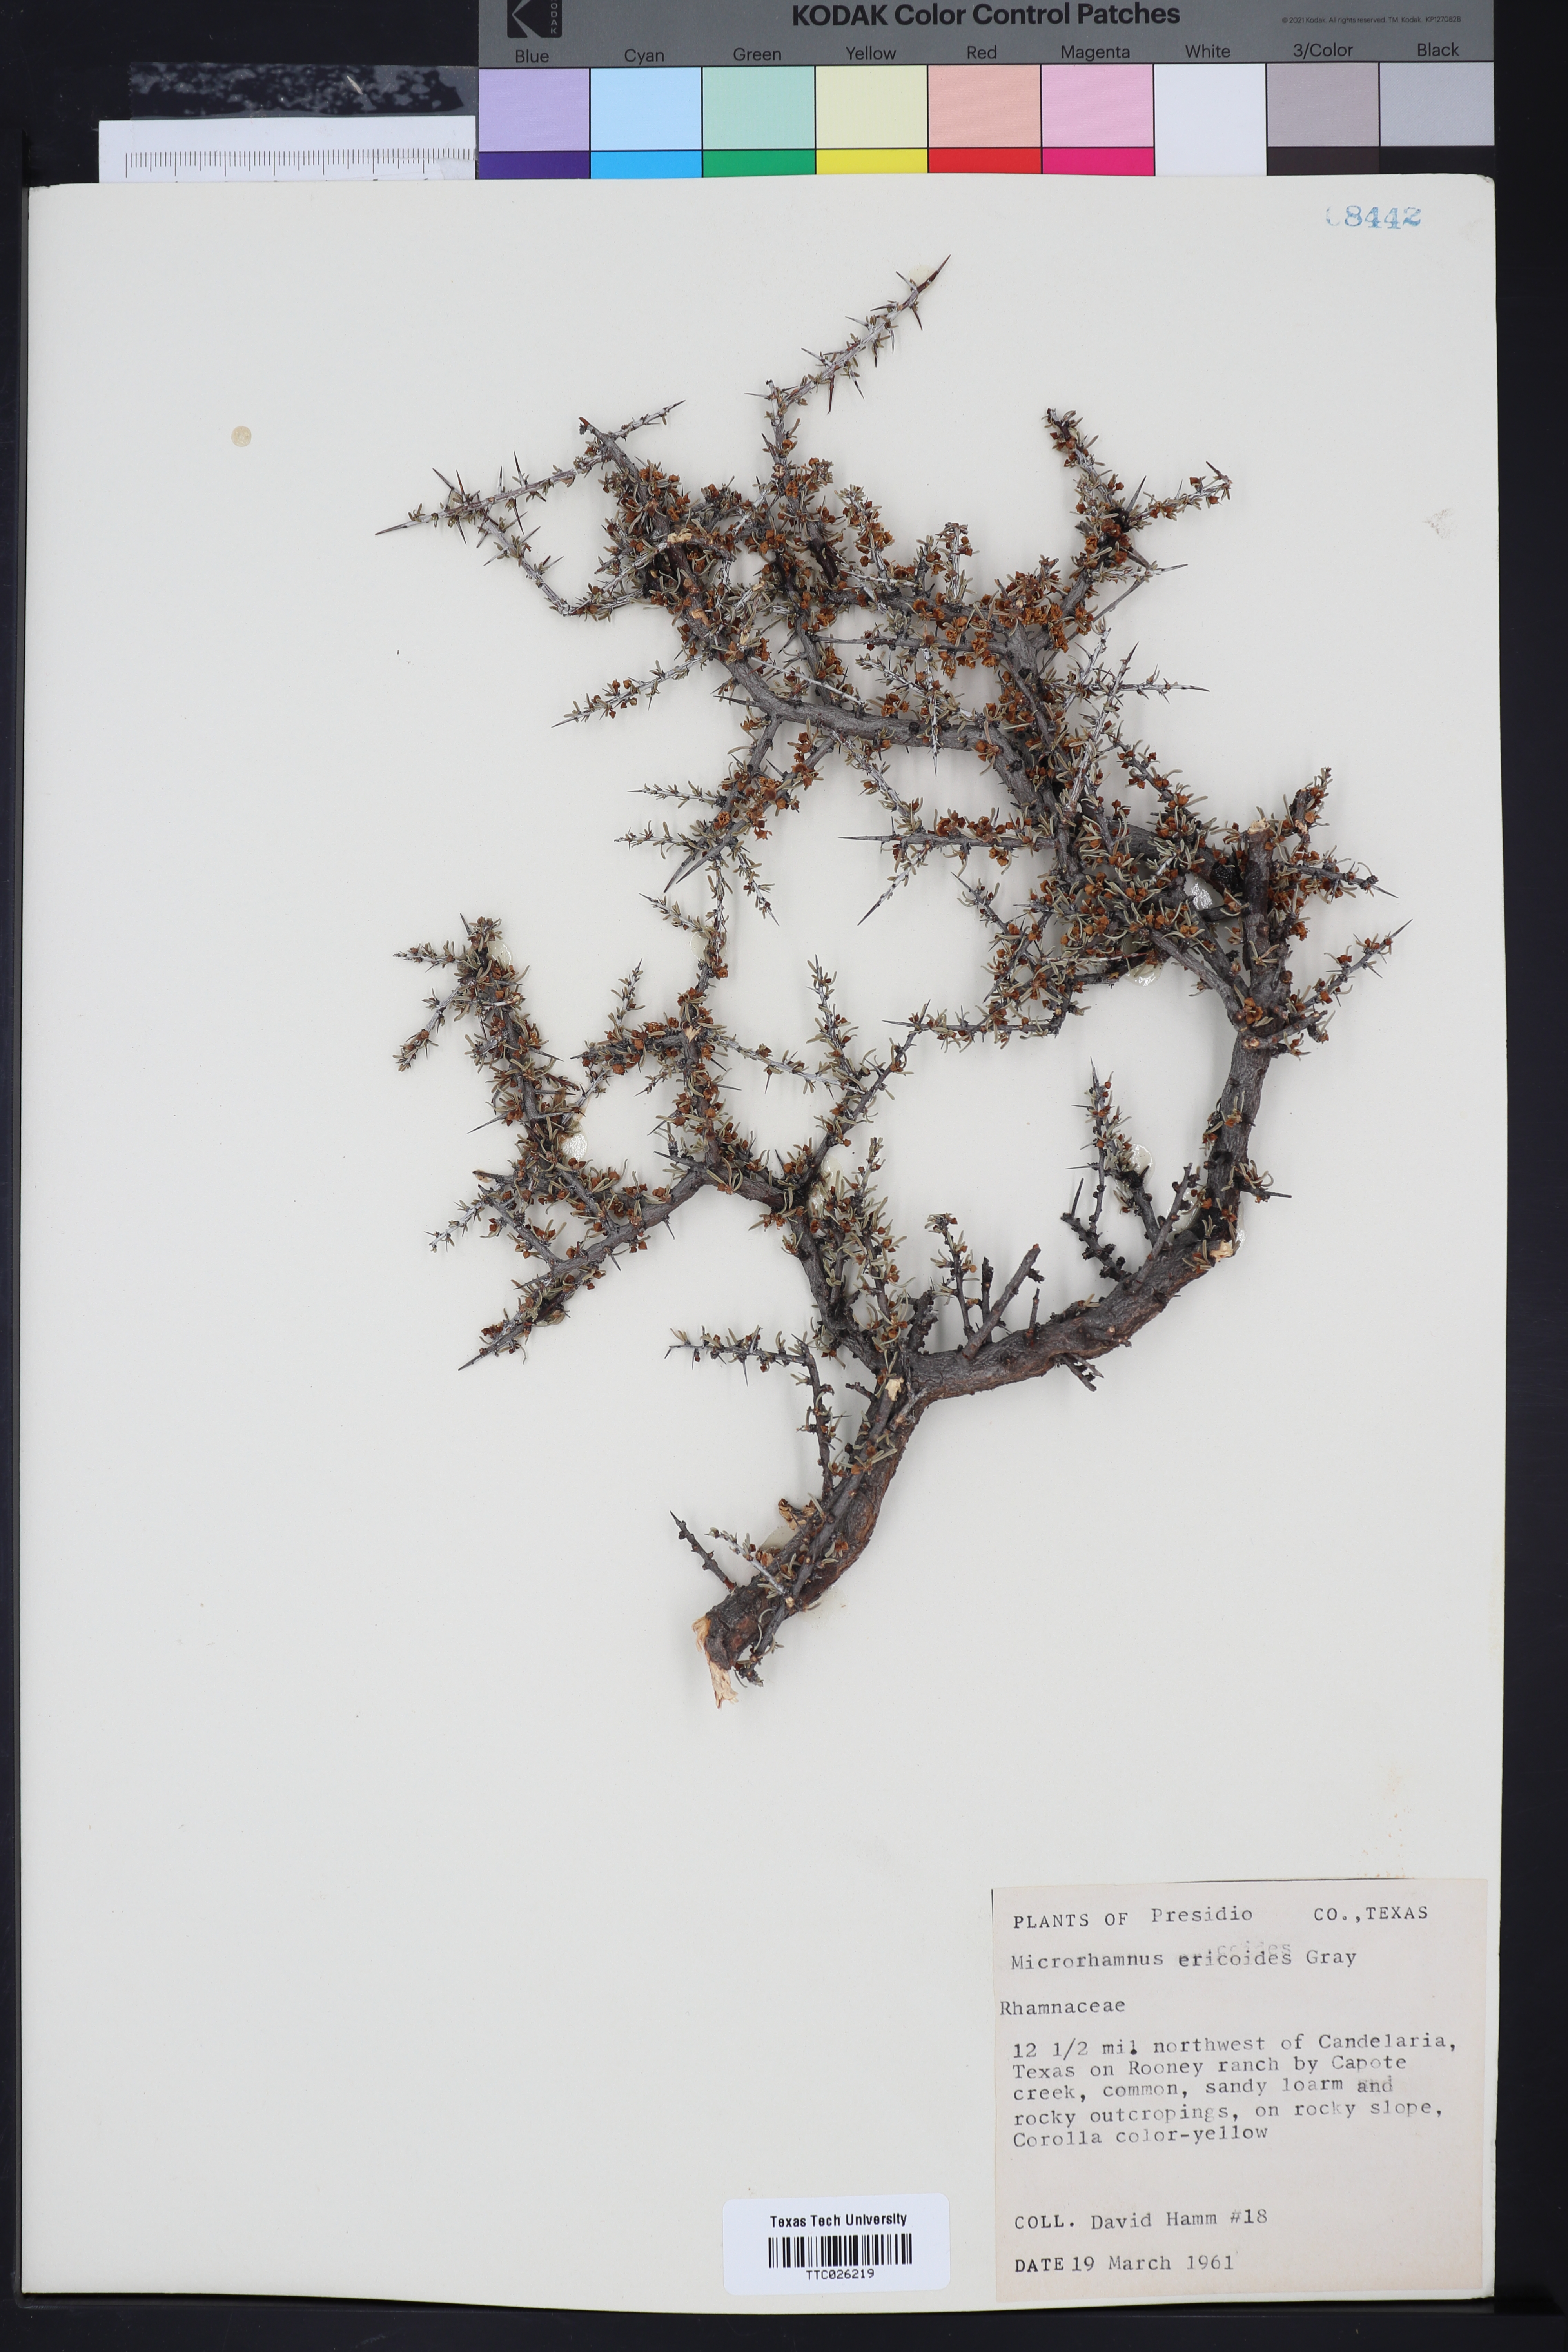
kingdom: Plantae
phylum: Tracheophyta
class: Magnoliopsida
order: Rosales
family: Rhamnaceae
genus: Condalia
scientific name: Condalia ericoides
